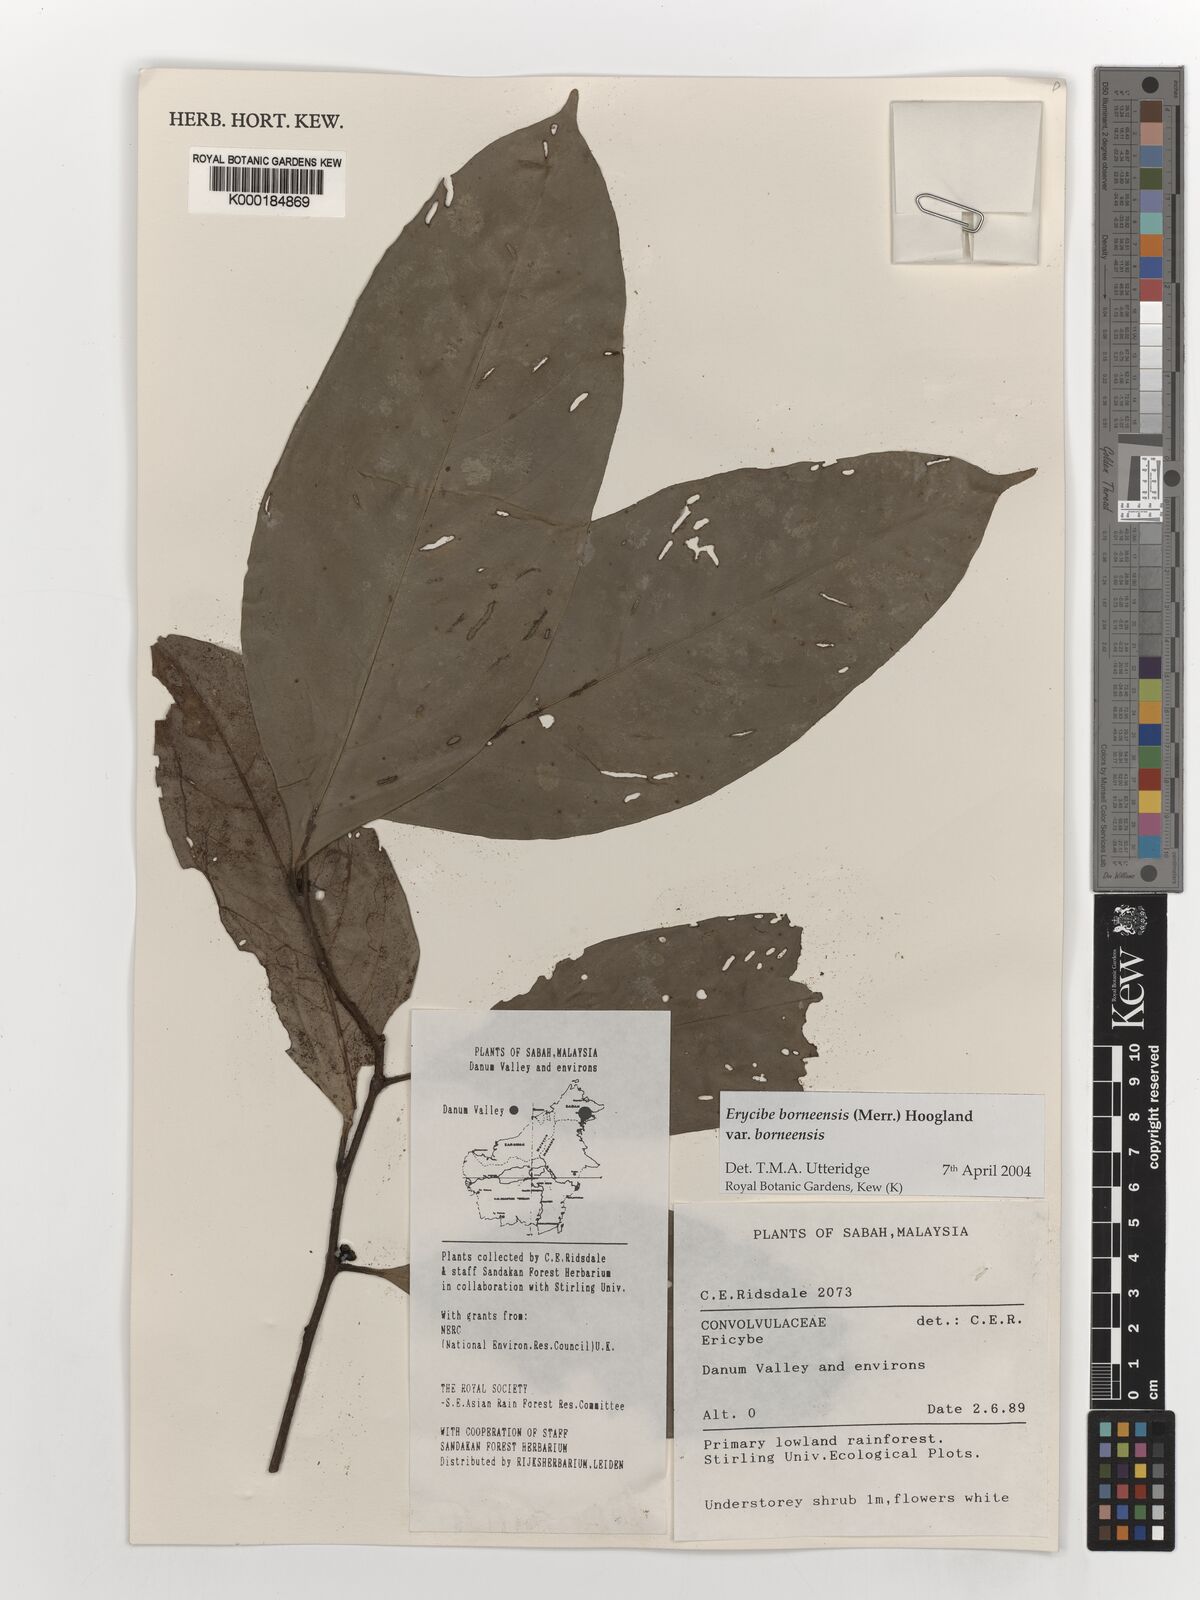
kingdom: Plantae
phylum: Tracheophyta
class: Magnoliopsida
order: Solanales
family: Convolvulaceae
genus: Erycibe
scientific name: Erycibe borneensis
